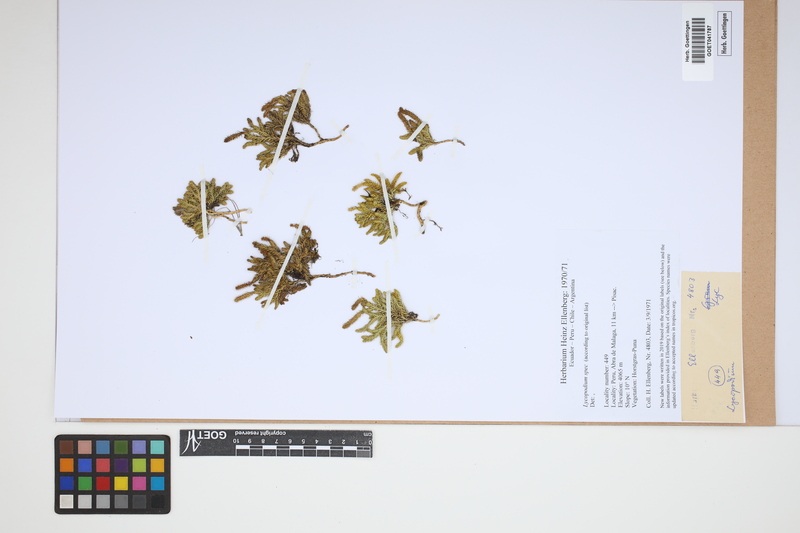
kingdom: Plantae
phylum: Tracheophyta
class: Lycopodiopsida
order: Lycopodiales
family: Lycopodiaceae
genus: Lycopodium
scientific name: Lycopodium
